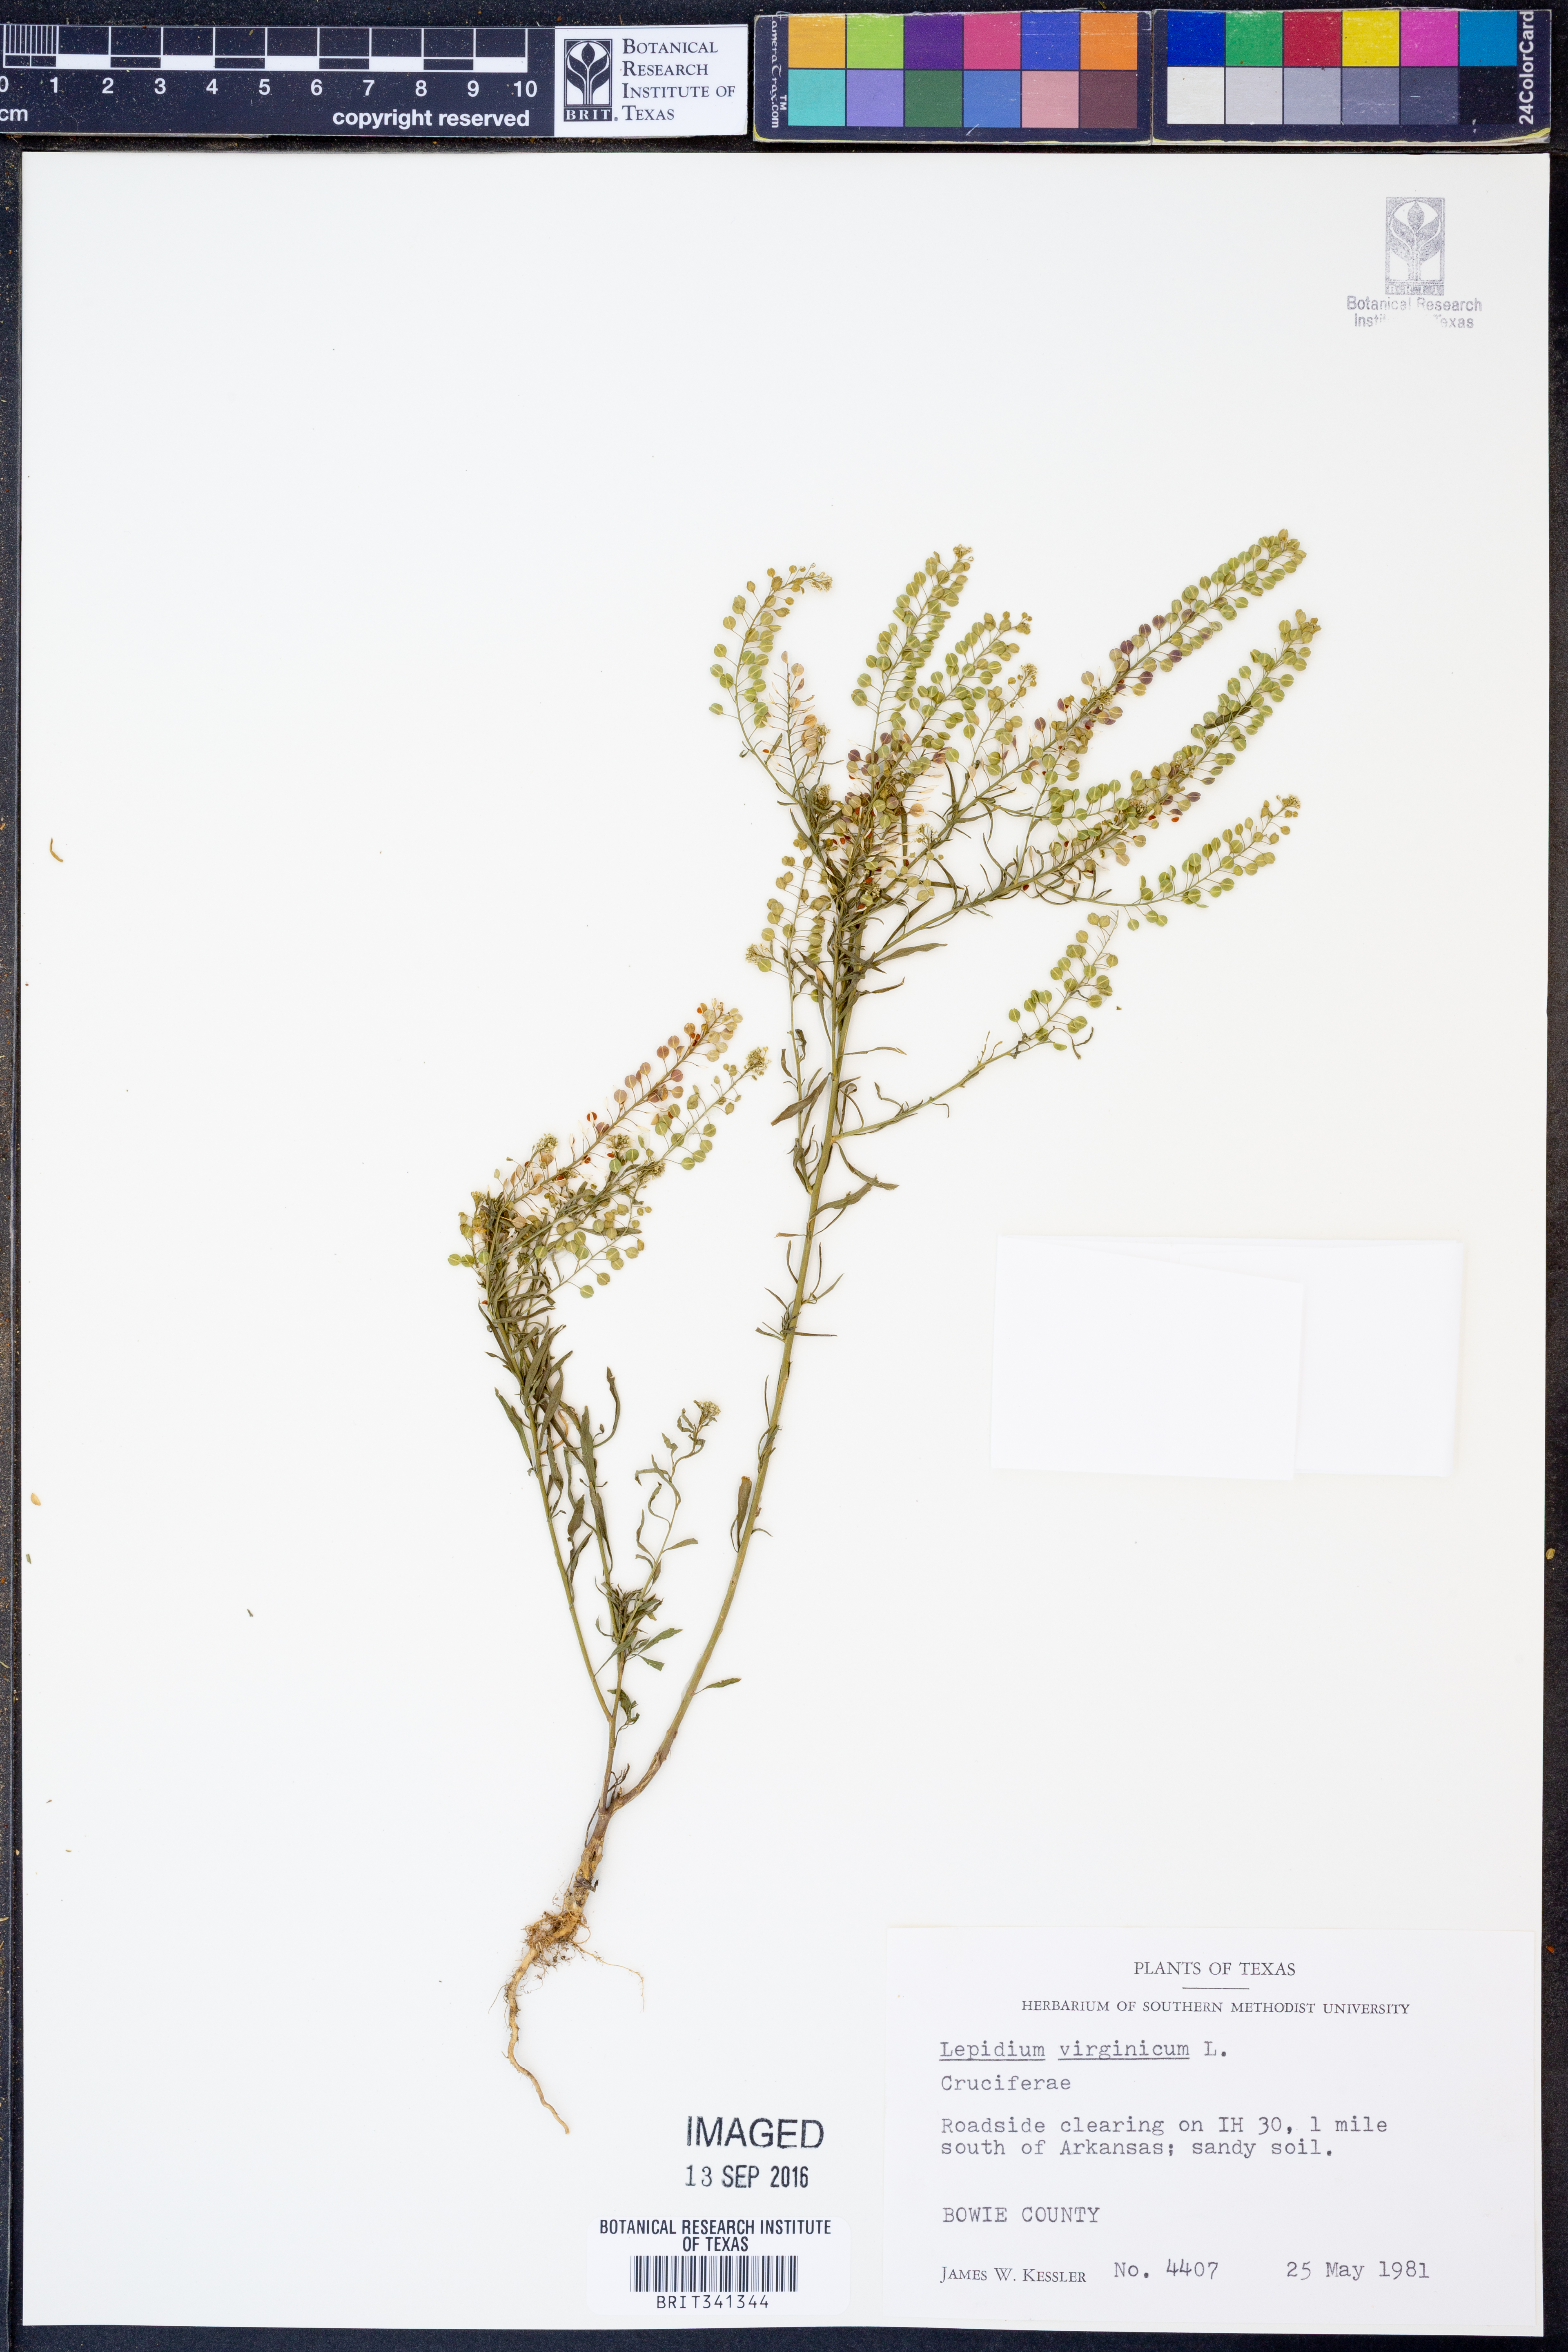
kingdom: Plantae
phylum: Tracheophyta
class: Magnoliopsida
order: Brassicales
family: Brassicaceae
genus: Lepidium
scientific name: Lepidium virginicum
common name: Least pepperwort
